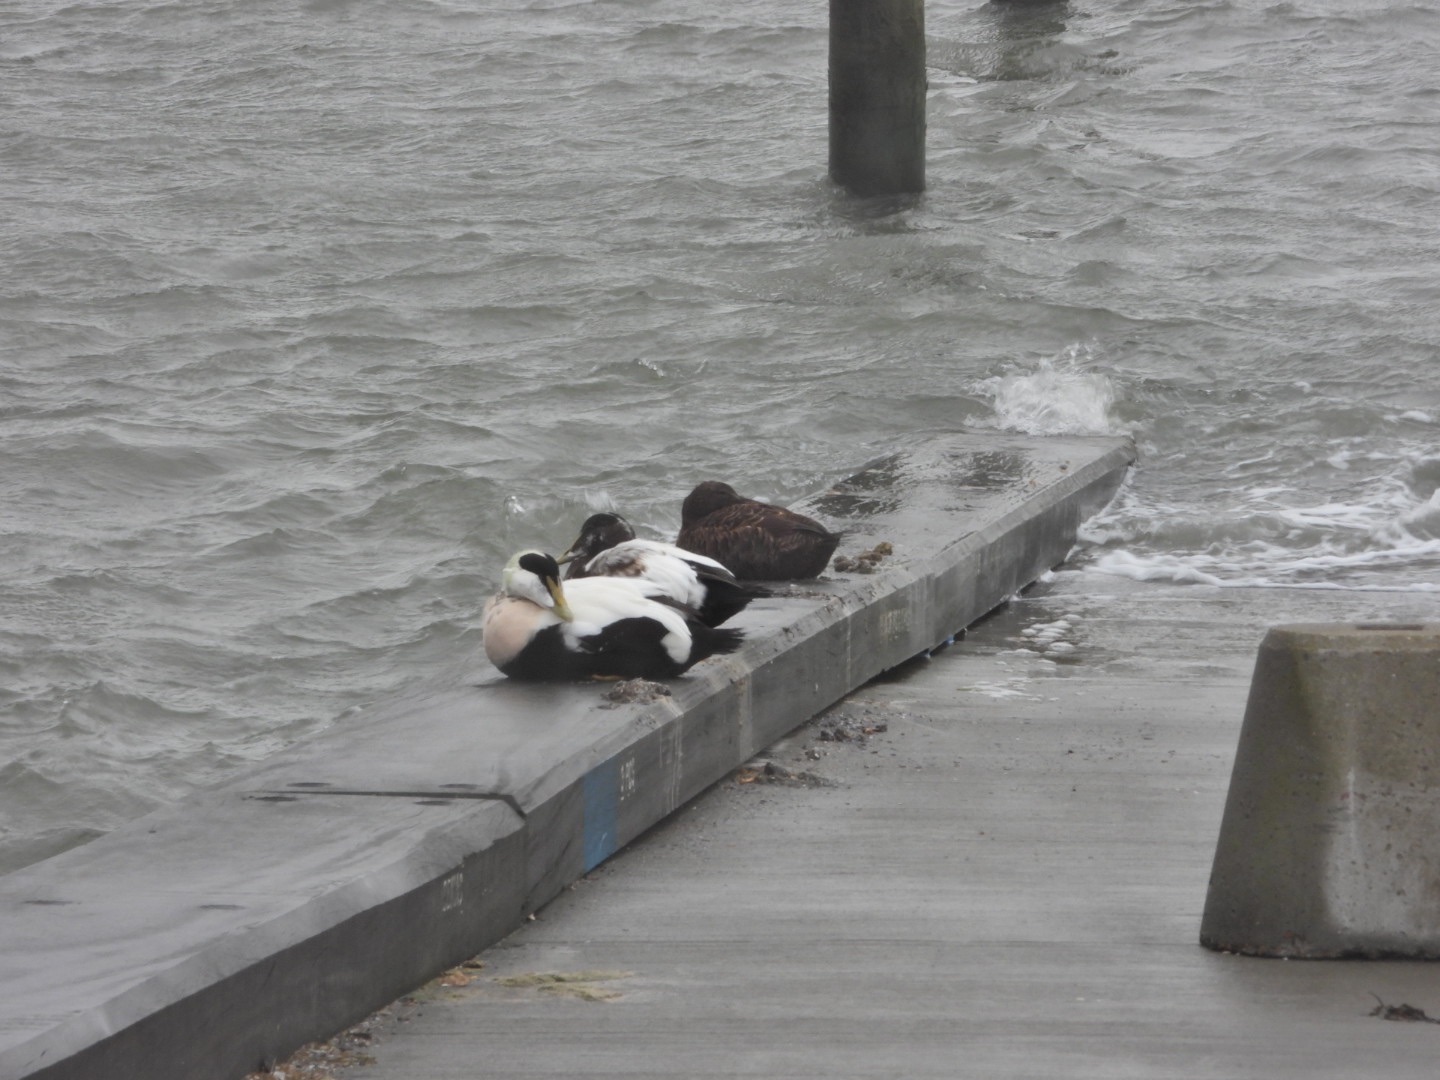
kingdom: Animalia
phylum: Chordata
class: Aves
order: Anseriformes
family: Anatidae
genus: Somateria
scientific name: Somateria mollissima
